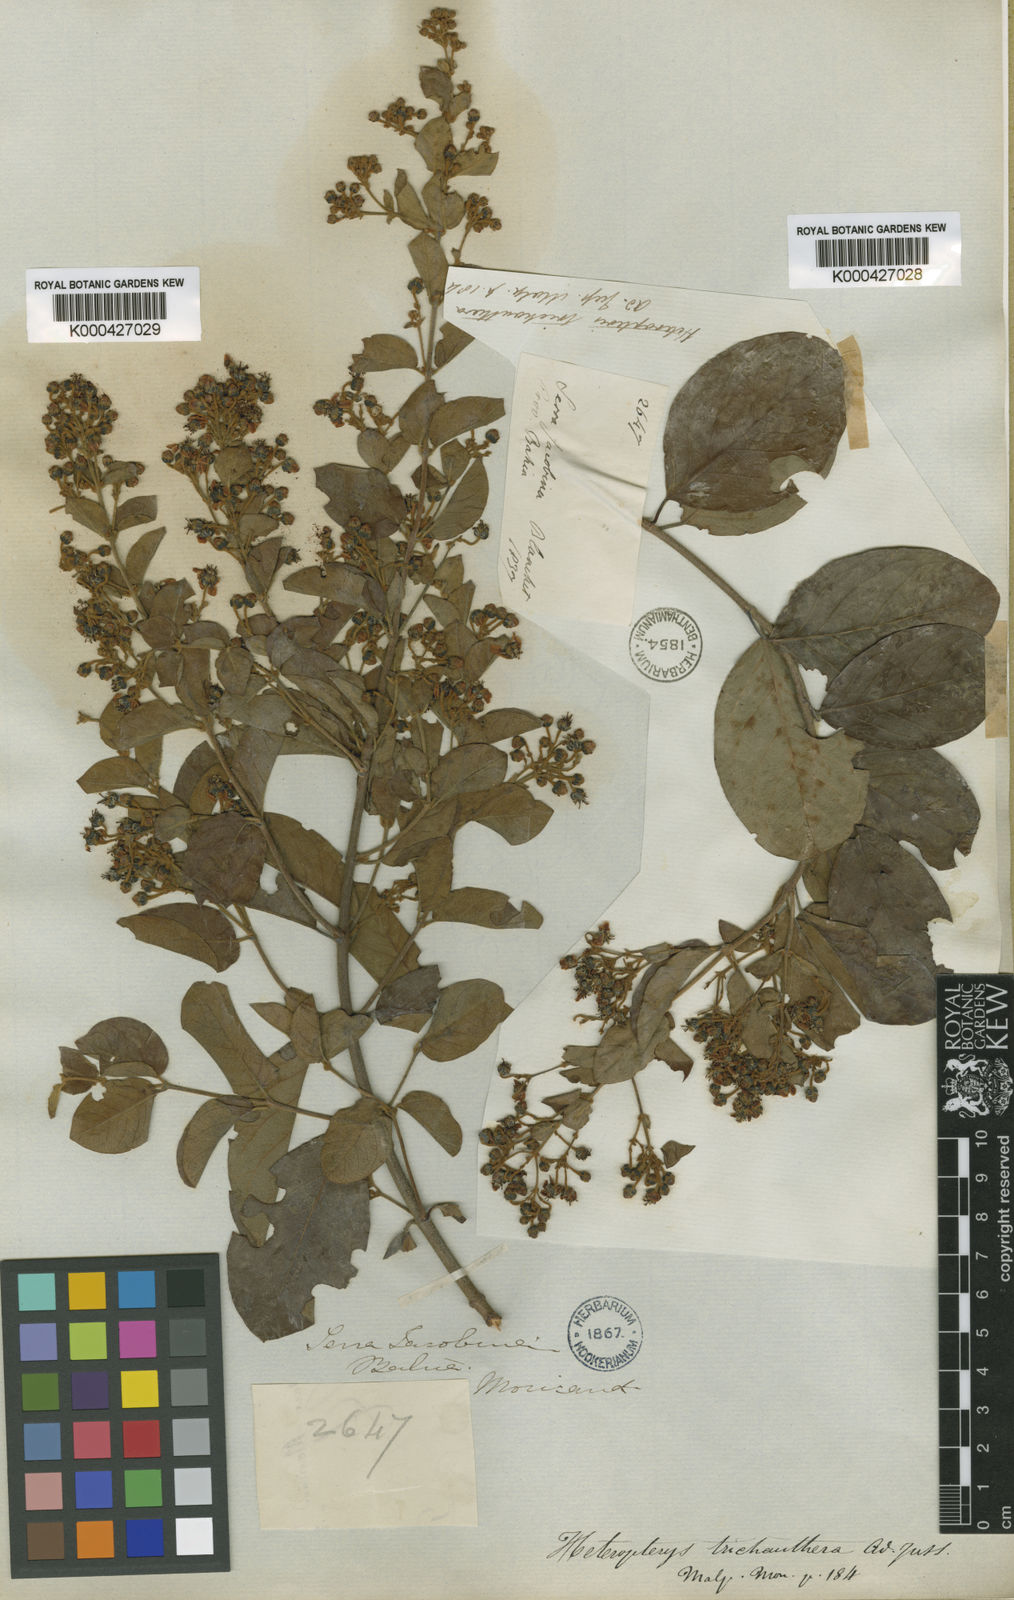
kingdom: Plantae
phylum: Tracheophyta
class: Magnoliopsida
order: Malpighiales
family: Malpighiaceae
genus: Heteropterys
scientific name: Heteropterys trichanthera
